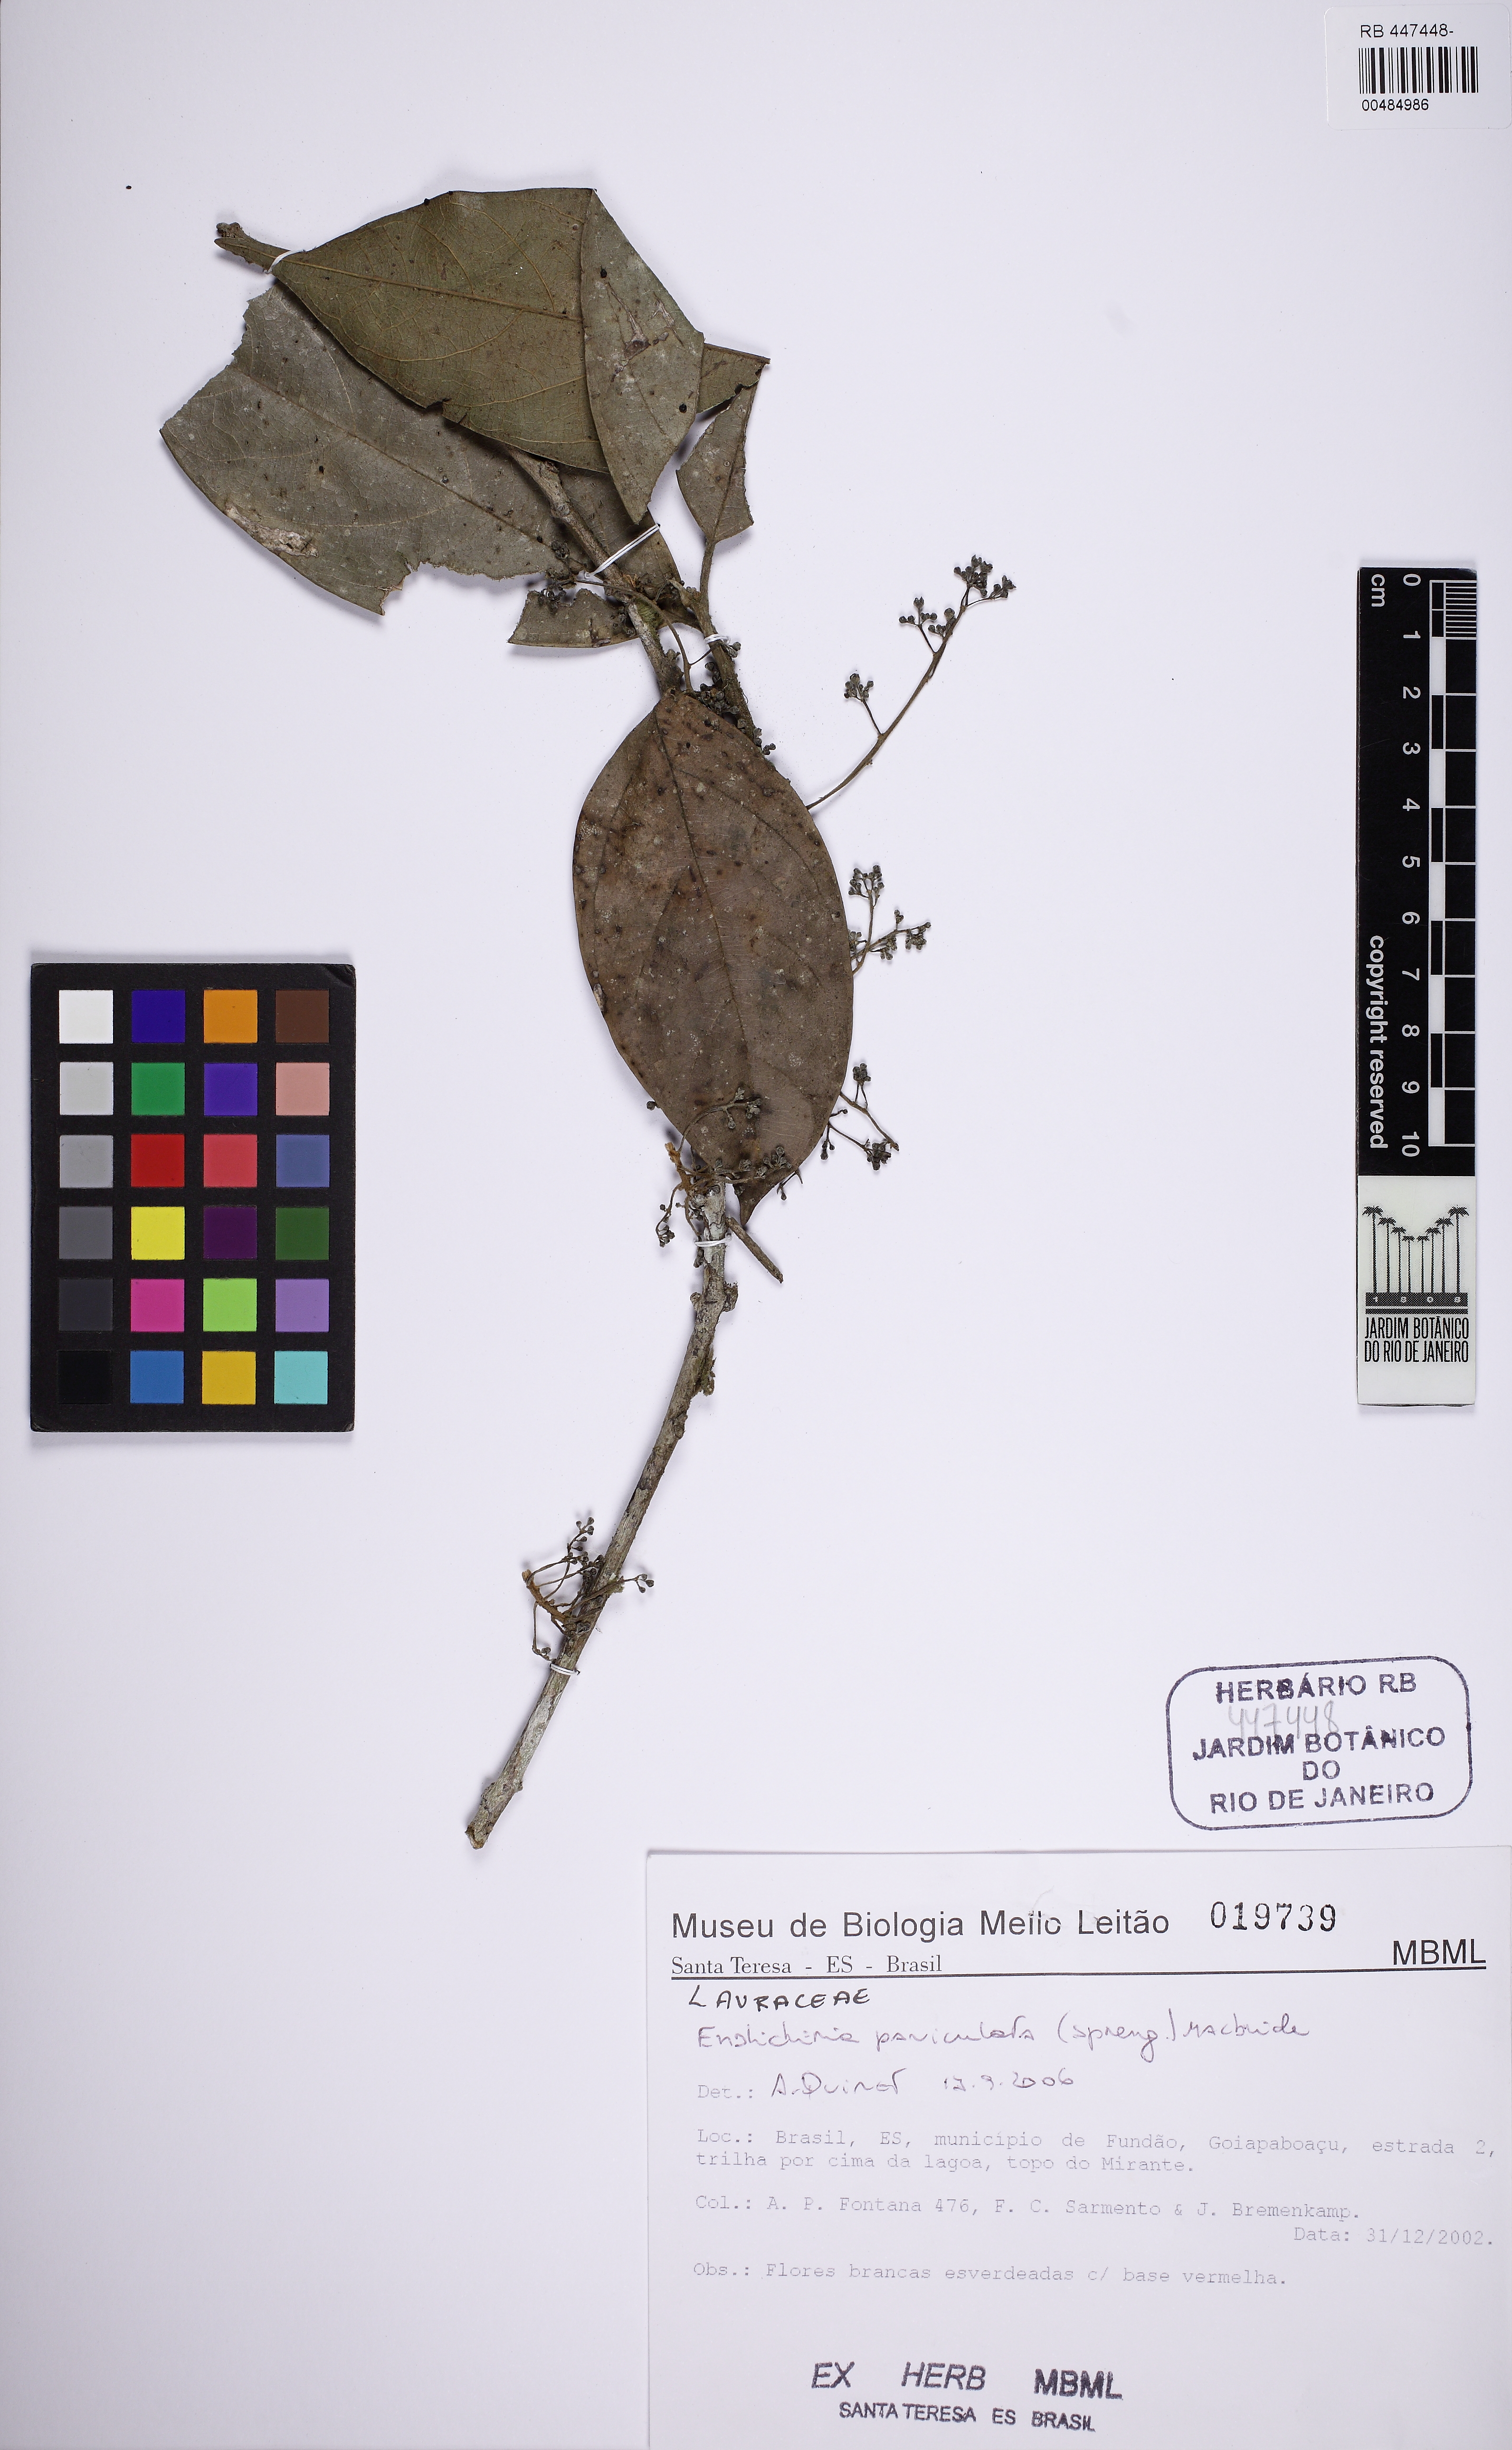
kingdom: Plantae
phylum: Tracheophyta
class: Magnoliopsida
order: Laurales
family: Lauraceae
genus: Endlicheria
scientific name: Endlicheria paniculata
